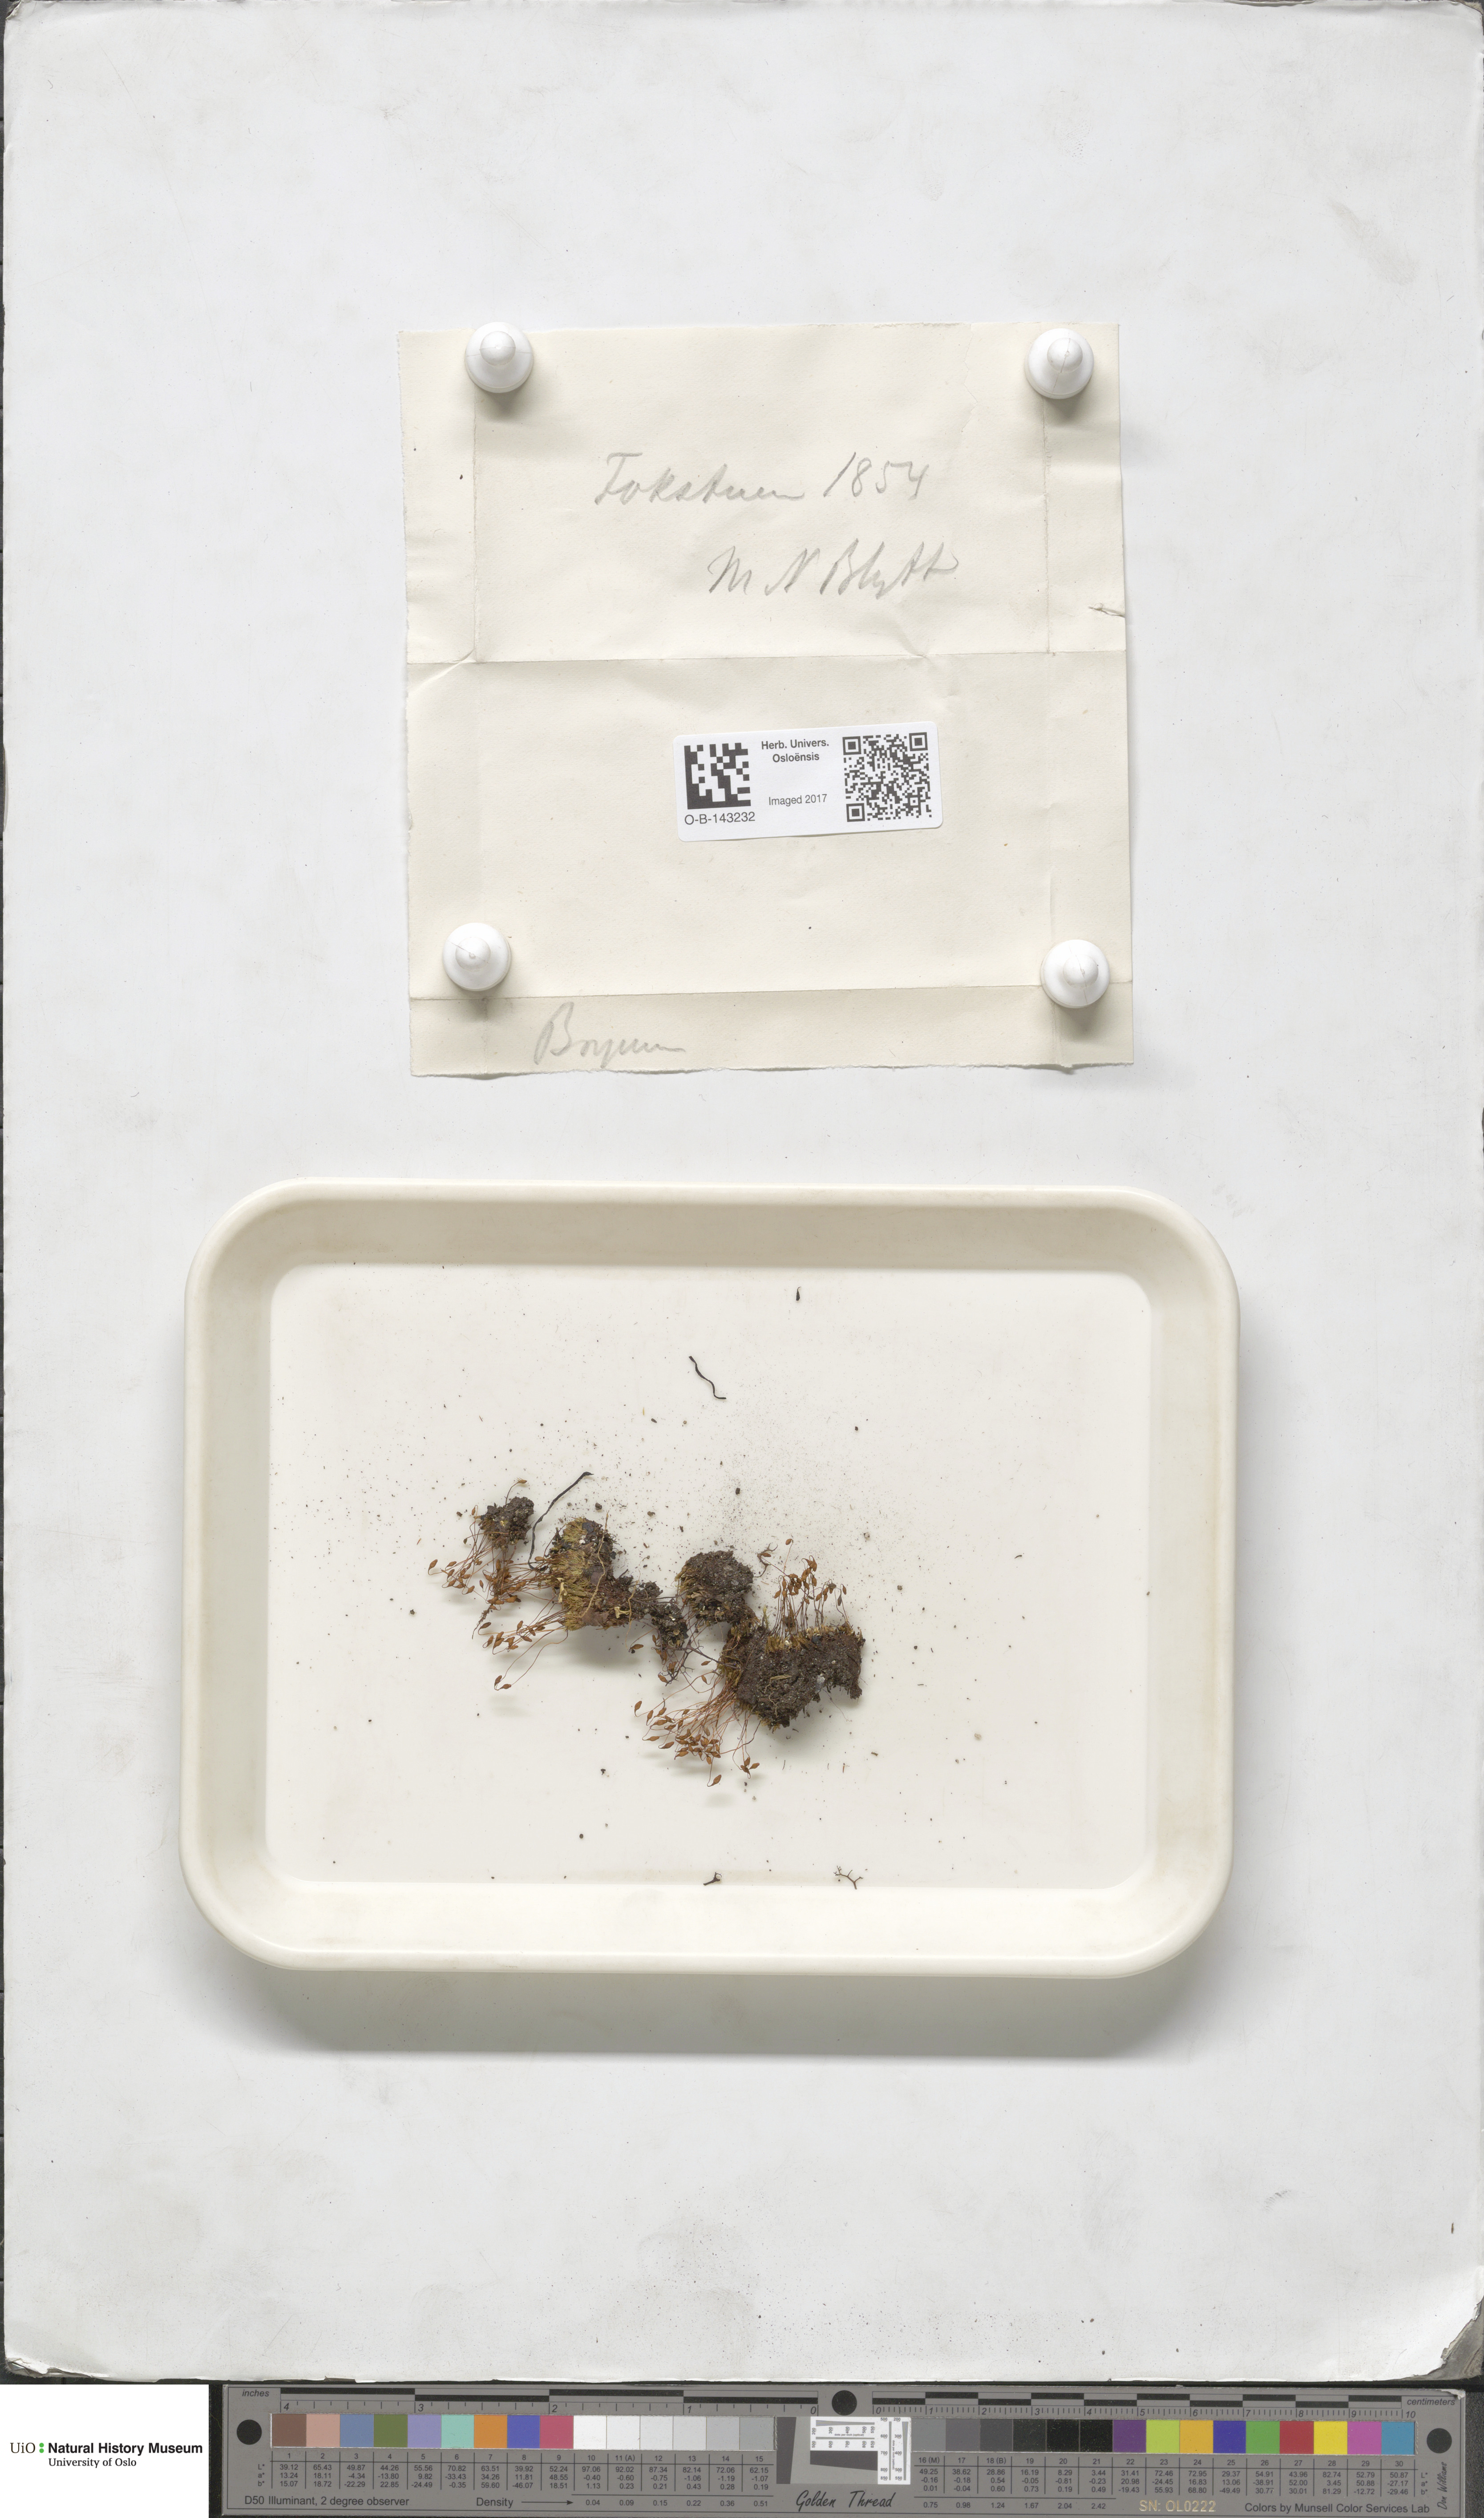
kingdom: Plantae
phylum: Bryophyta
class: Bryopsida
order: Bryales
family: Bryaceae
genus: Bryum
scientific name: Bryum
